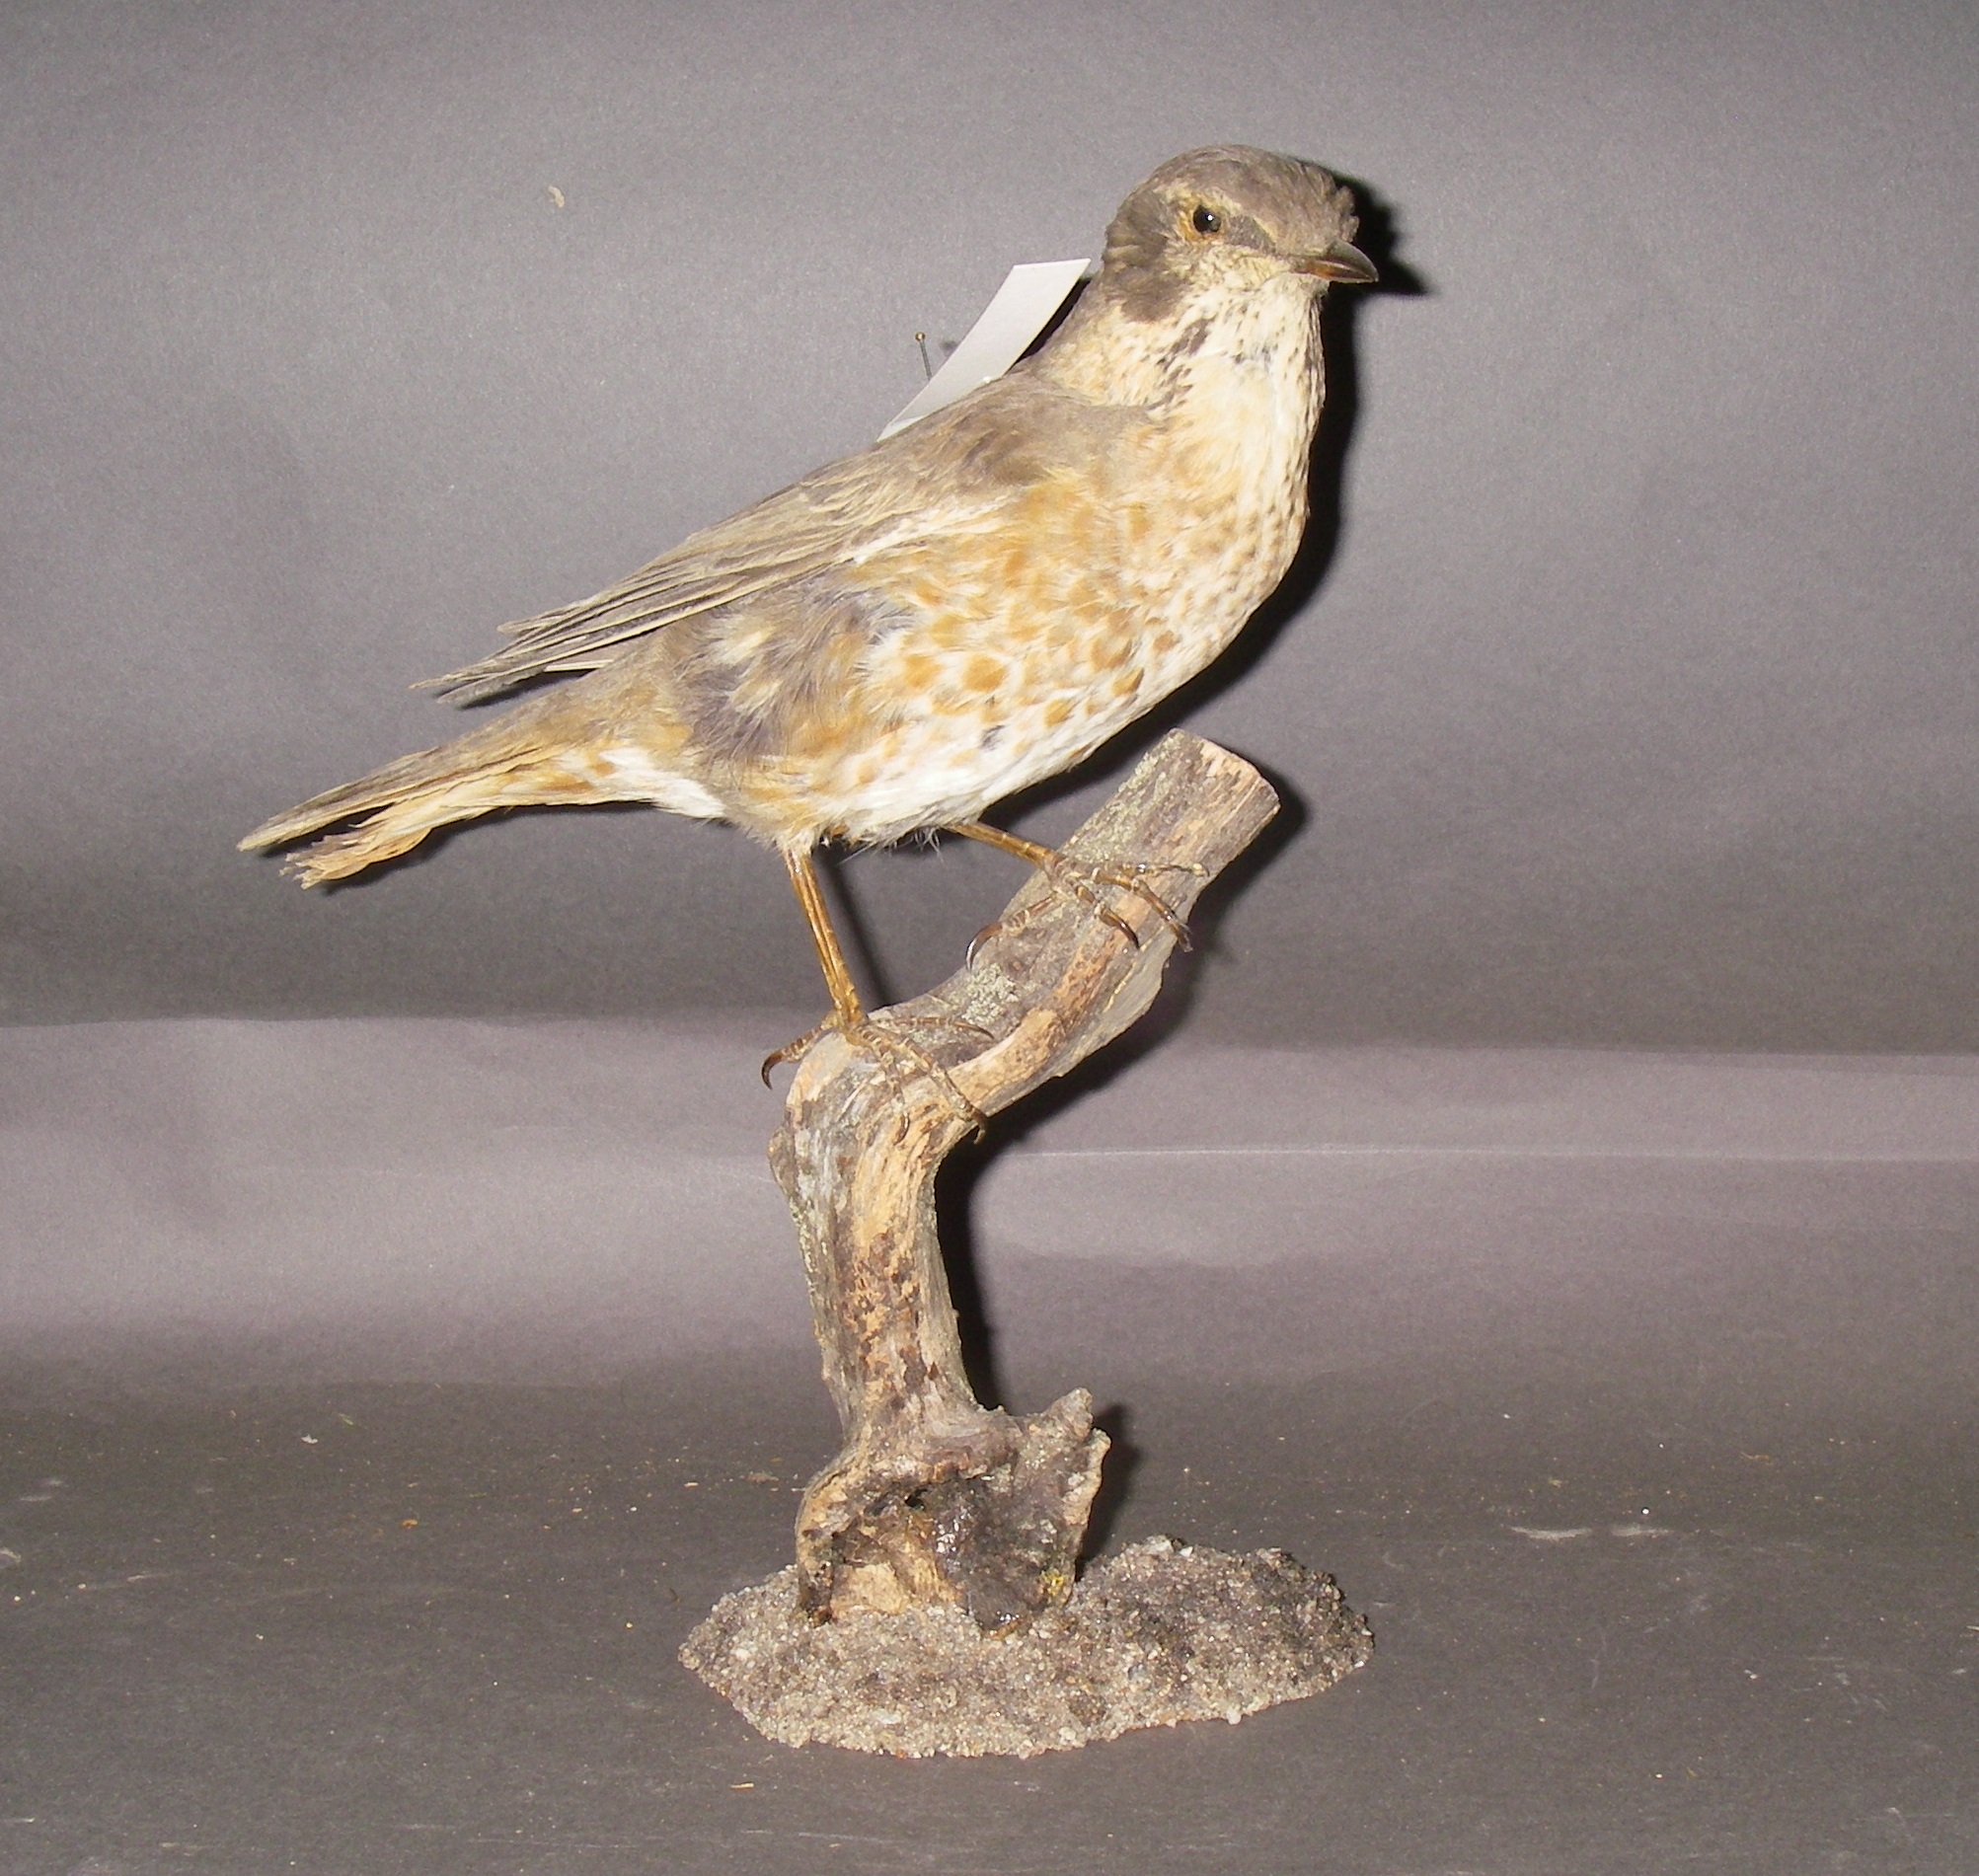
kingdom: Animalia
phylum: Chordata
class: Aves
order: Passeriformes
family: Turdidae
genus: Turdus
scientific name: Turdus naumanni
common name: Naumann's thrush
